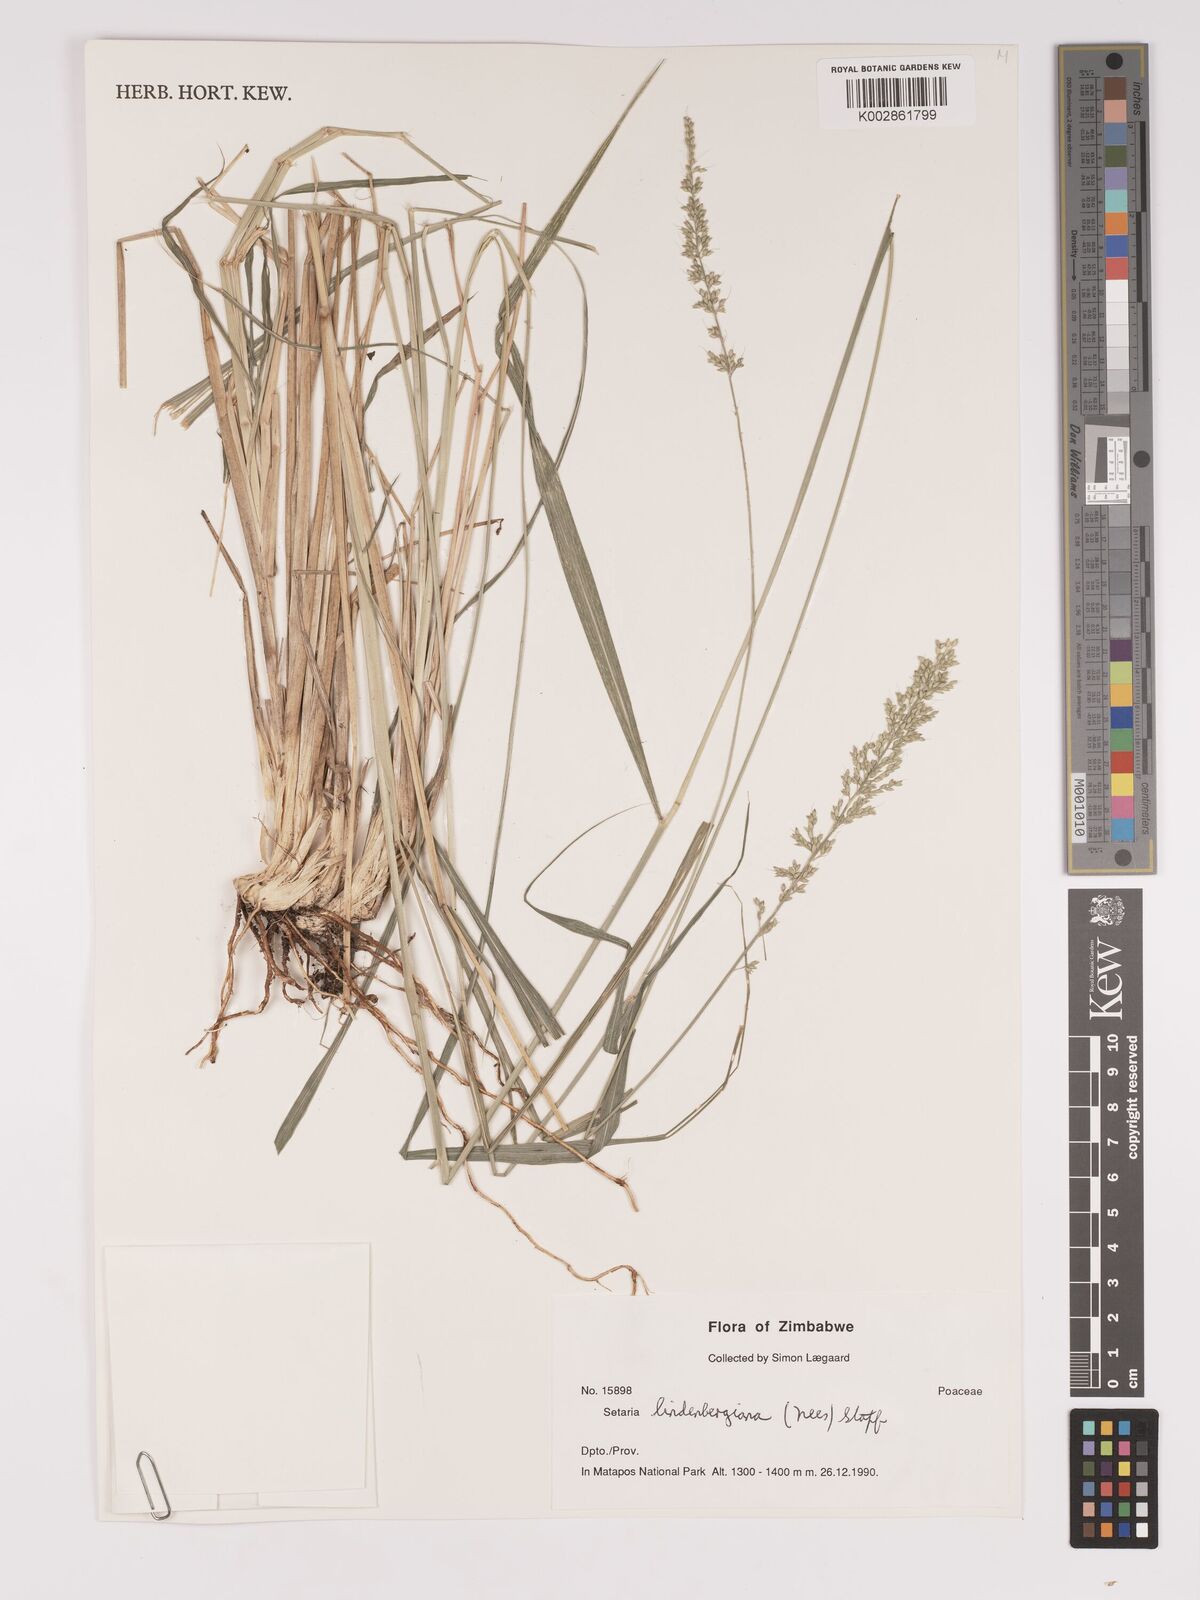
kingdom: Plantae
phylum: Tracheophyta
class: Liliopsida
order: Poales
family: Poaceae
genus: Setaria
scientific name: Setaria lindenbergiana
